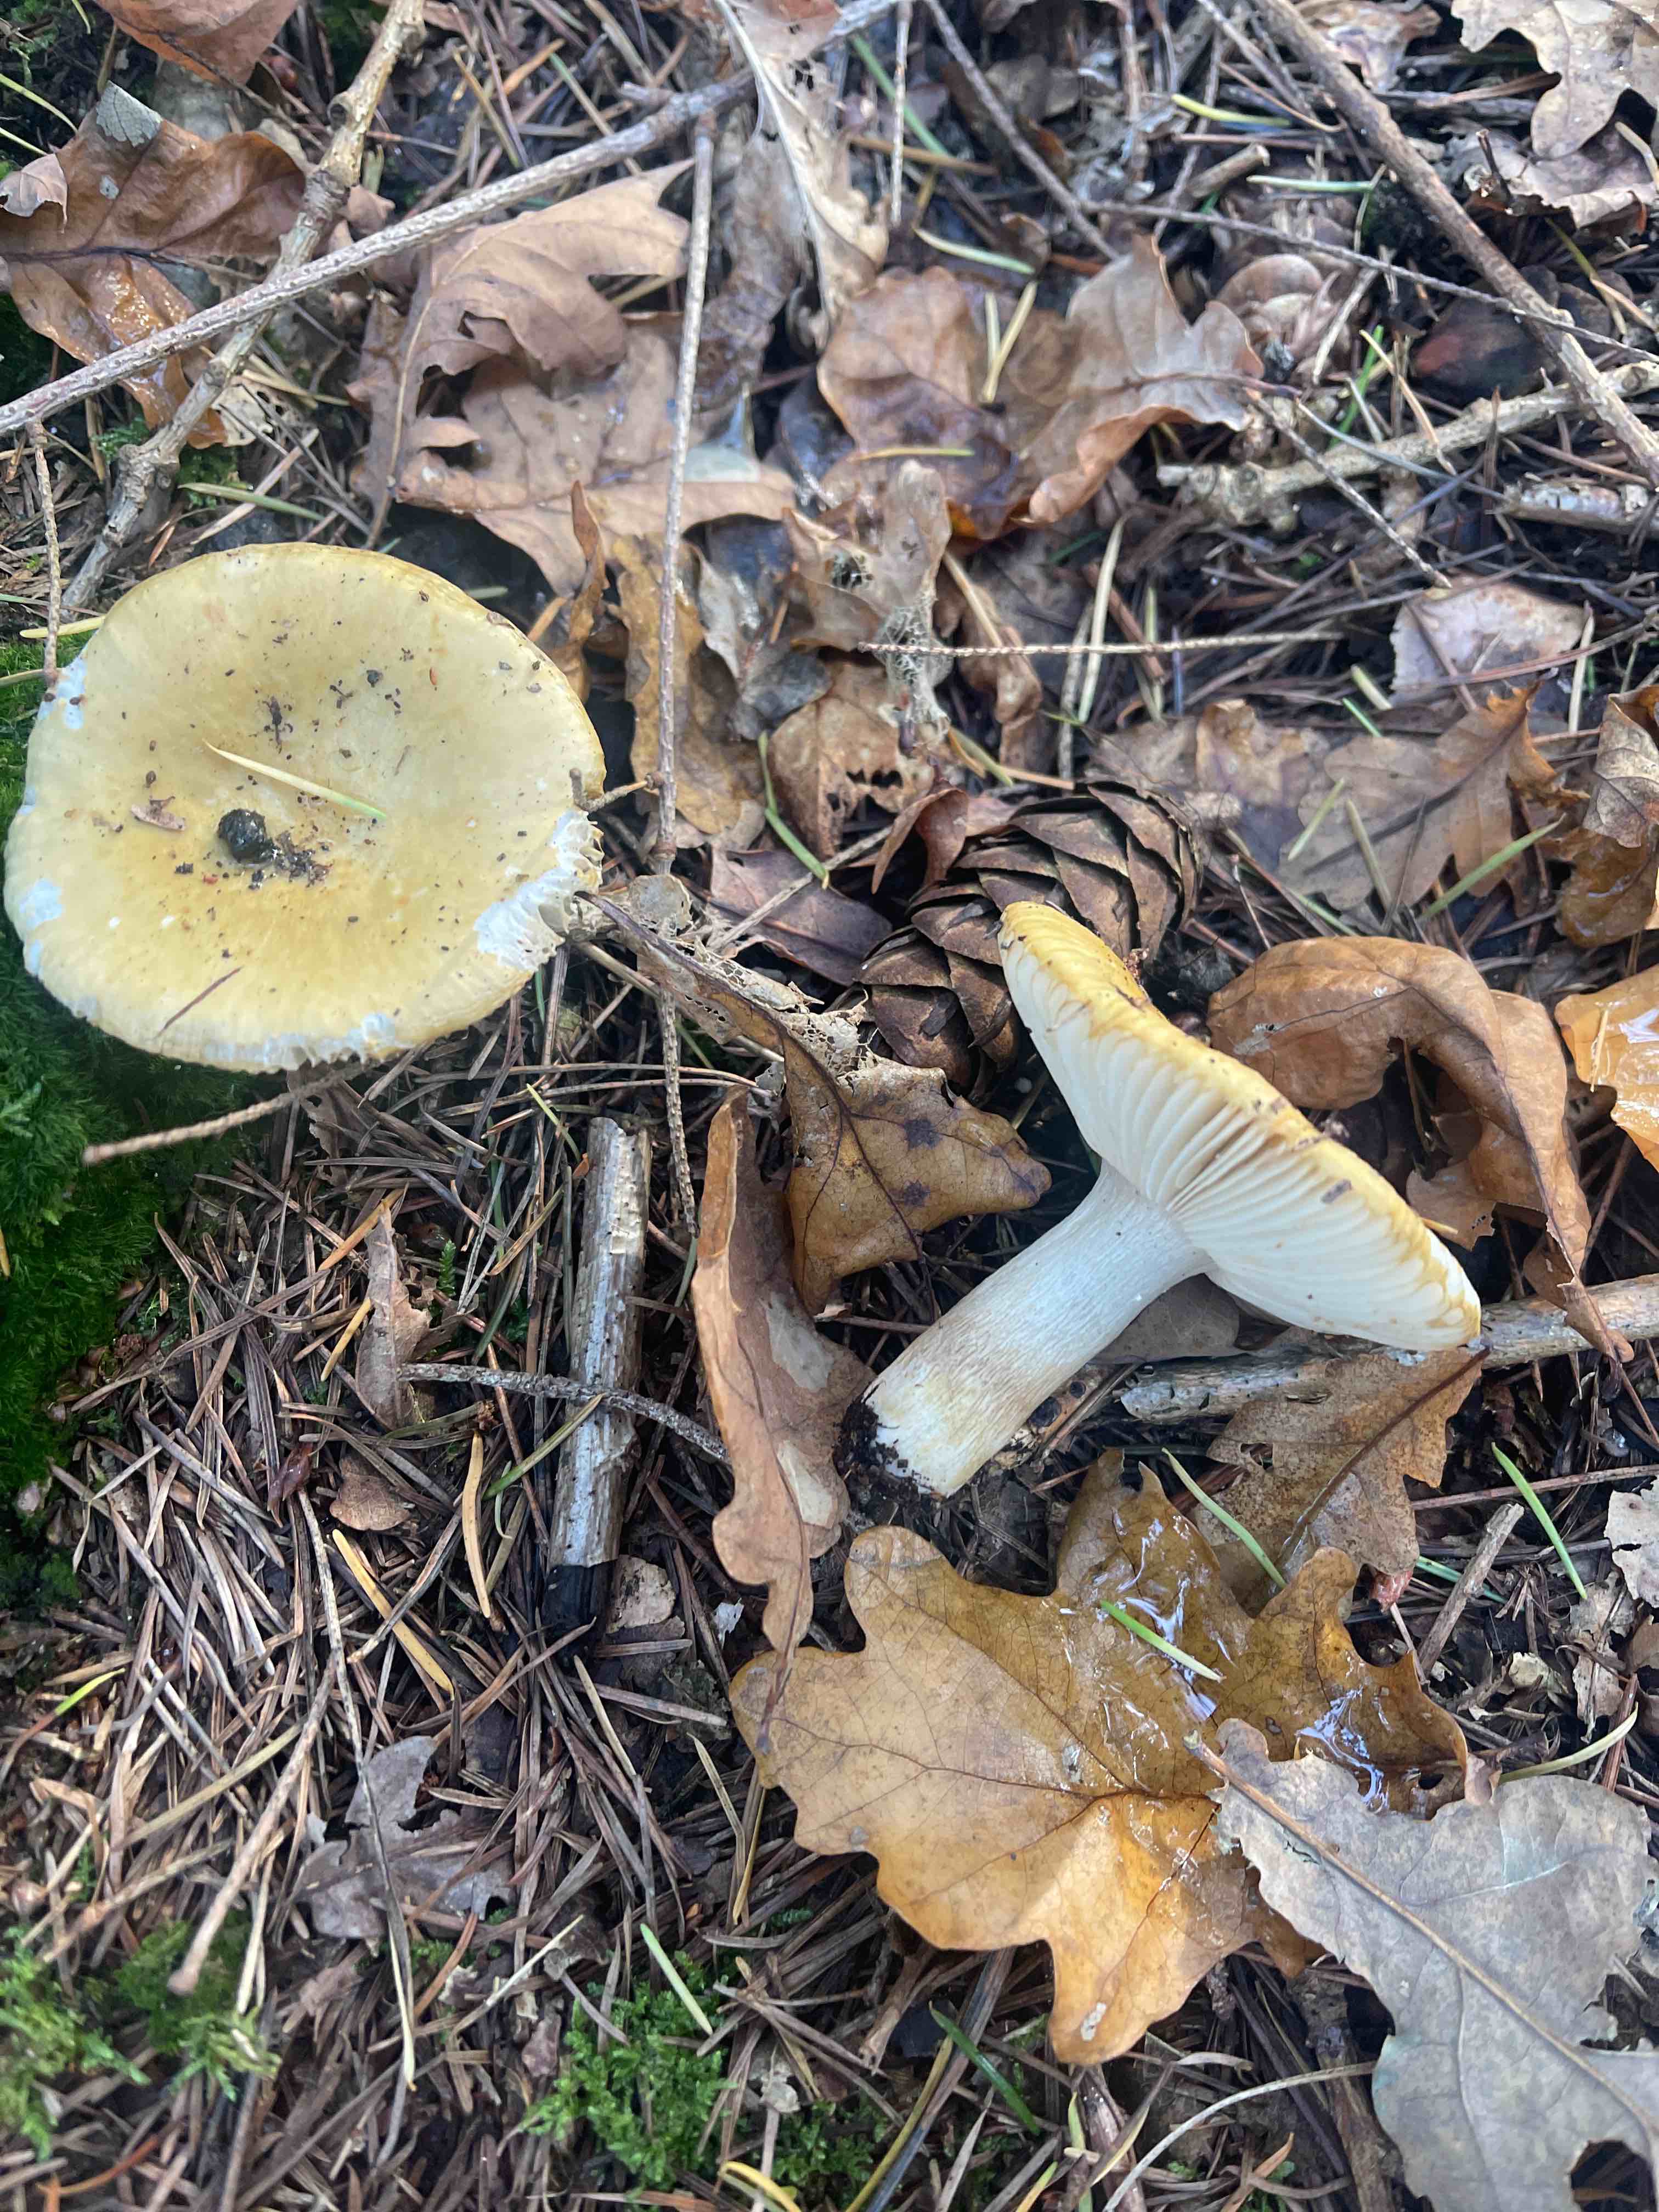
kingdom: Fungi
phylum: Basidiomycota
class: Agaricomycetes
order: Russulales
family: Russulaceae
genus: Russula
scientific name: Russula ochroleuca
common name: okkergul skørhat
